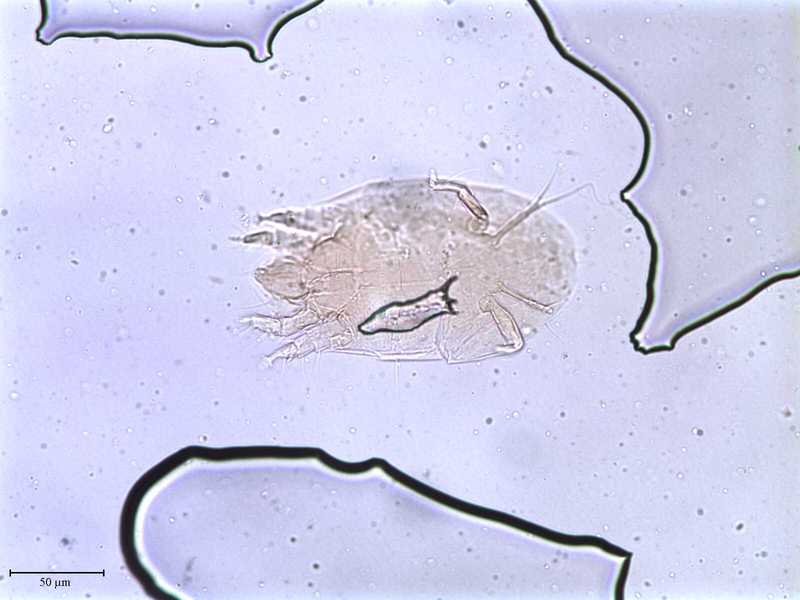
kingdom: Animalia
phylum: Arthropoda
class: Arachnida
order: Trombidiformes
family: Tarsonemidae
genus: Pseudotarsonemoides
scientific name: Pseudotarsonemoides innumerabilis
